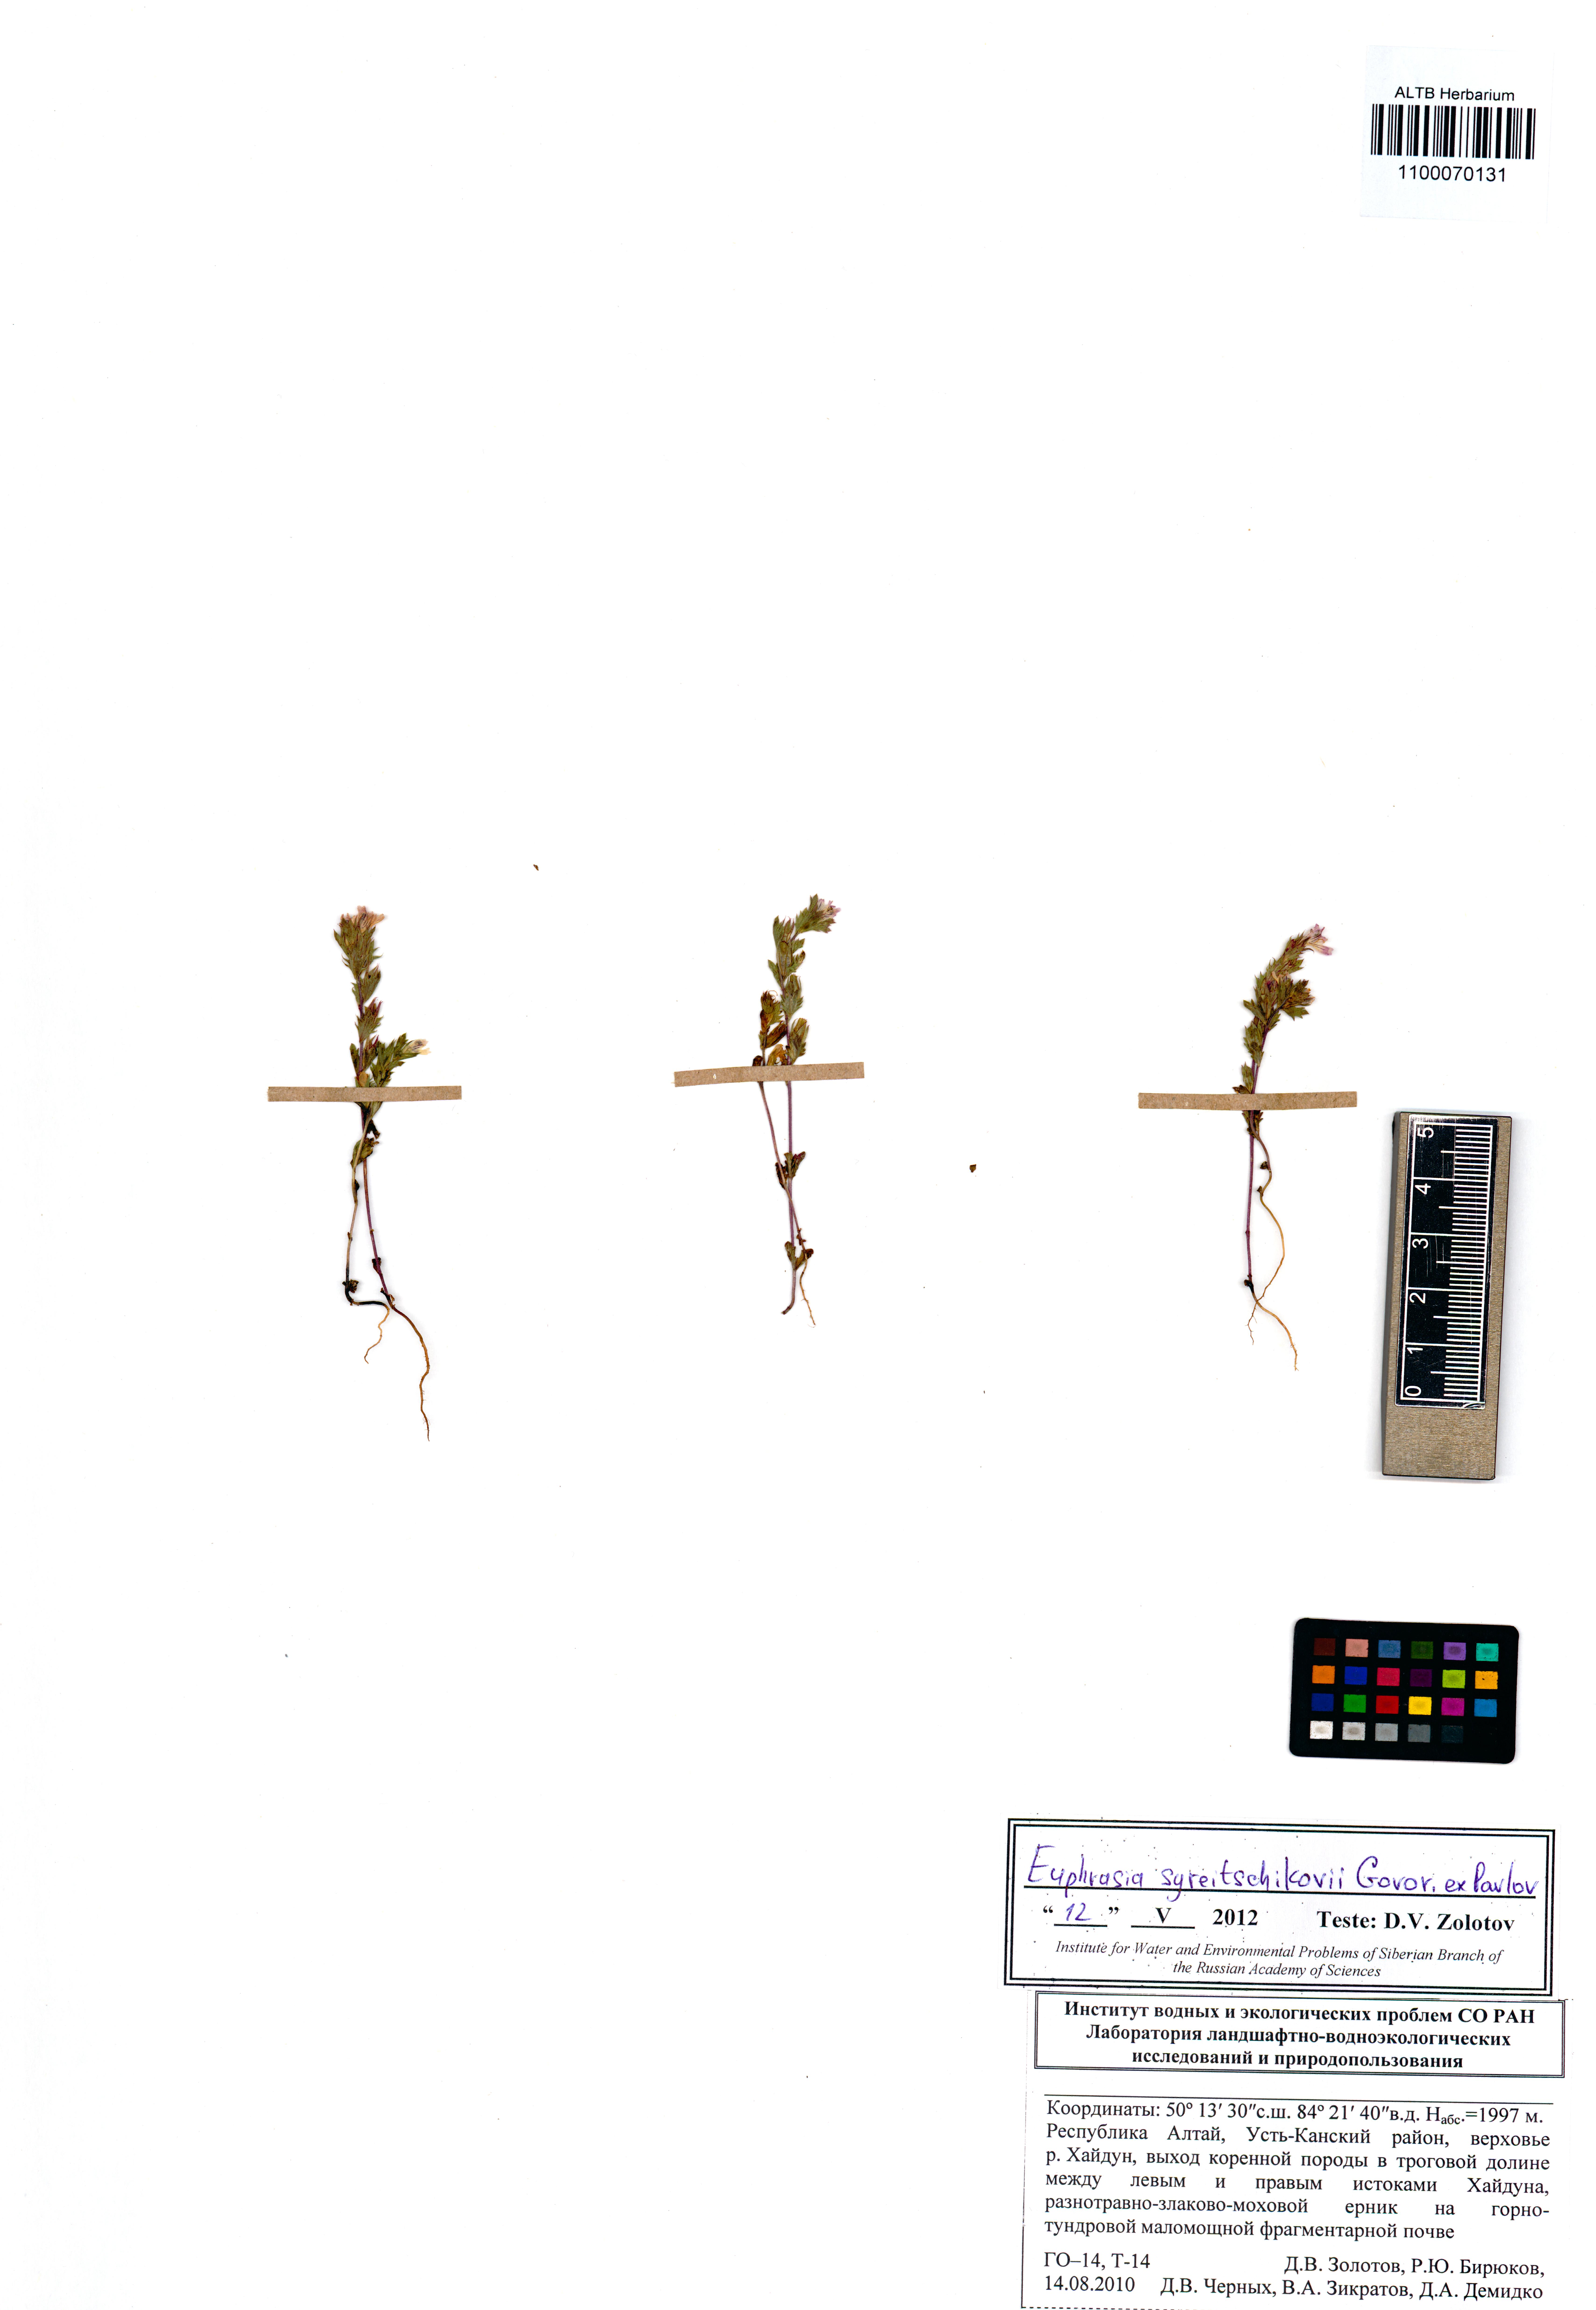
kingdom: Plantae
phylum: Tracheophyta
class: Magnoliopsida
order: Lamiales
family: Orobanchaceae
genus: Euphrasia
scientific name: Euphrasia syreitschikovii
